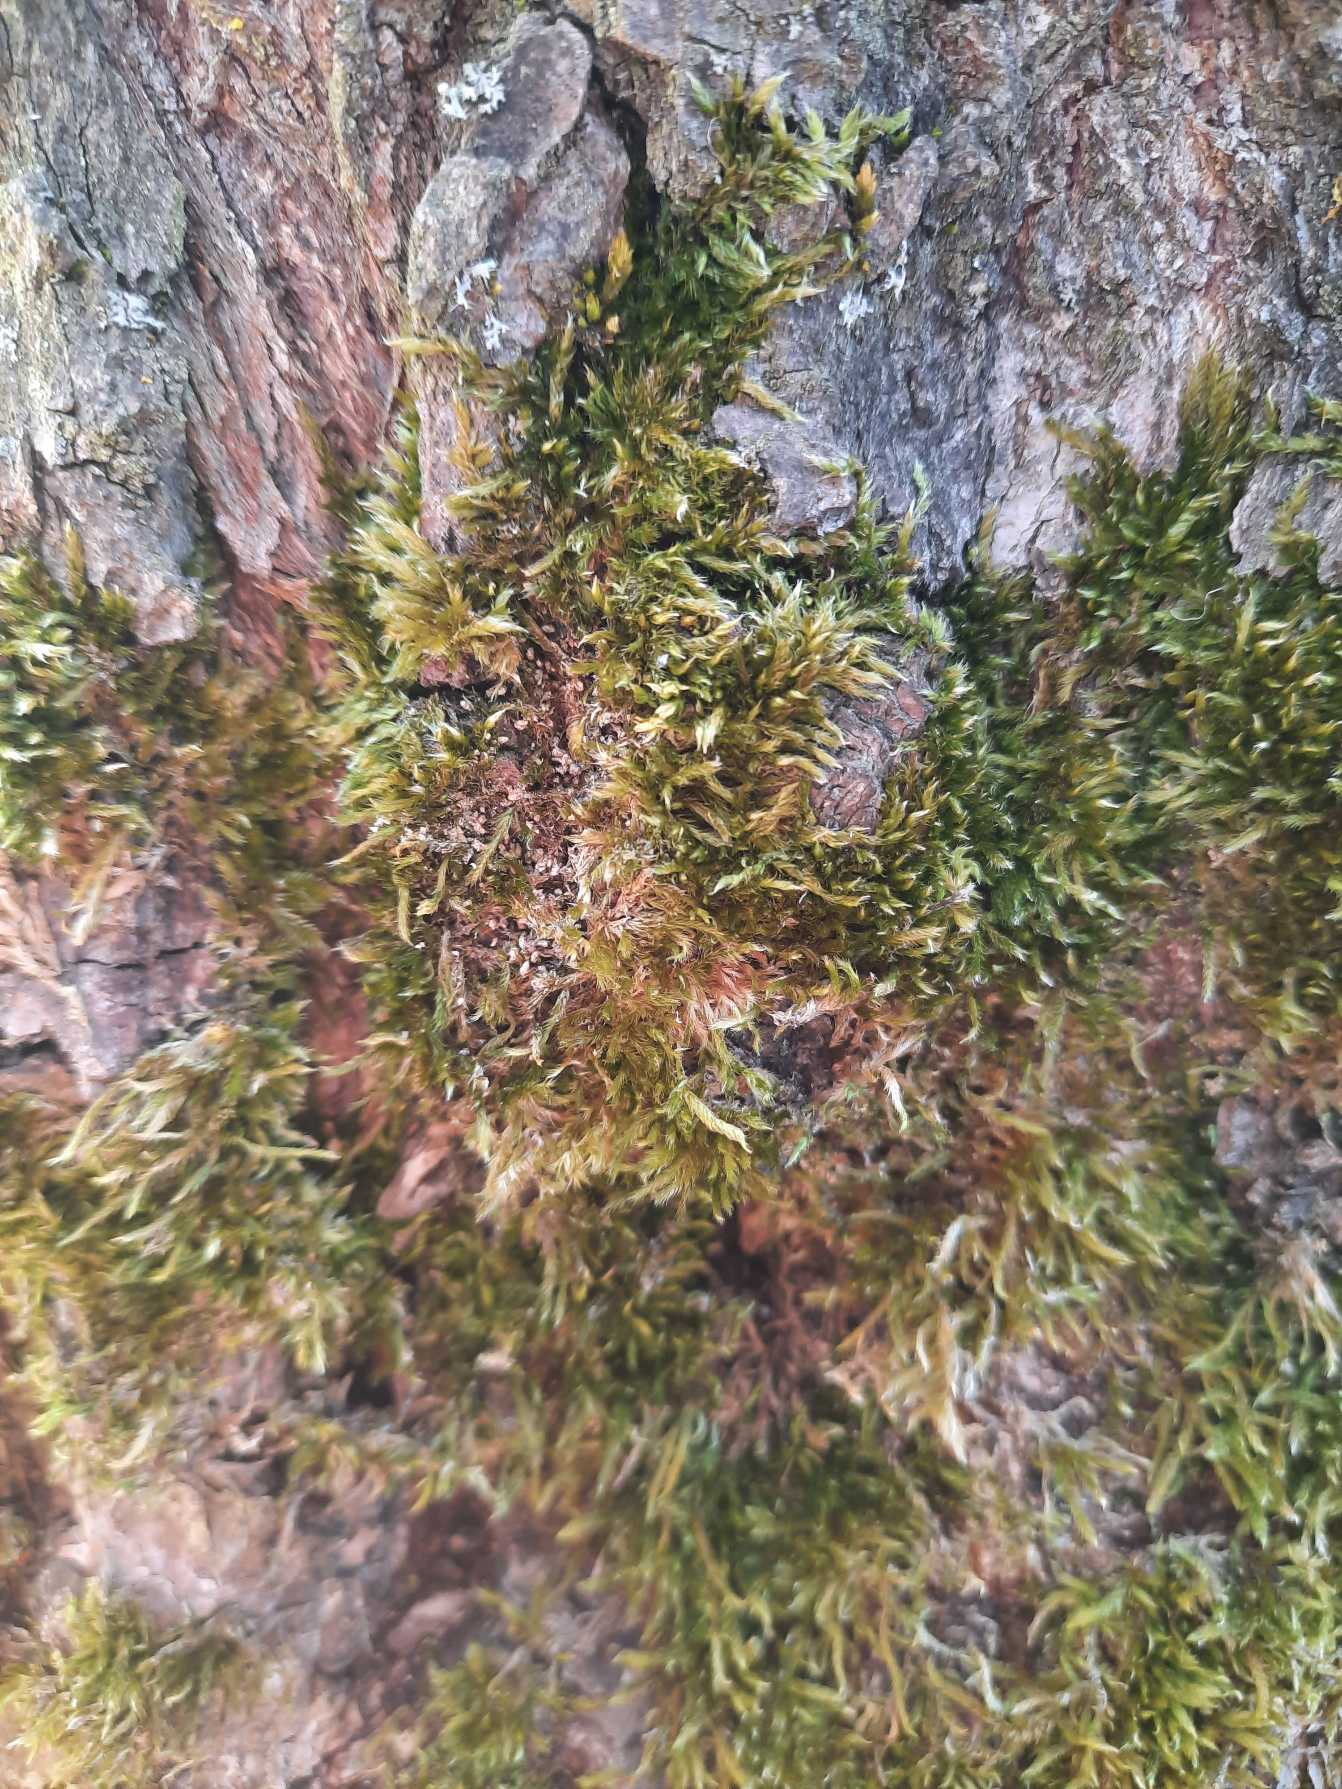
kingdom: Plantae
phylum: Bryophyta
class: Bryopsida
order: Hypnales
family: Hypnaceae
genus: Hypnum
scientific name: Hypnum
